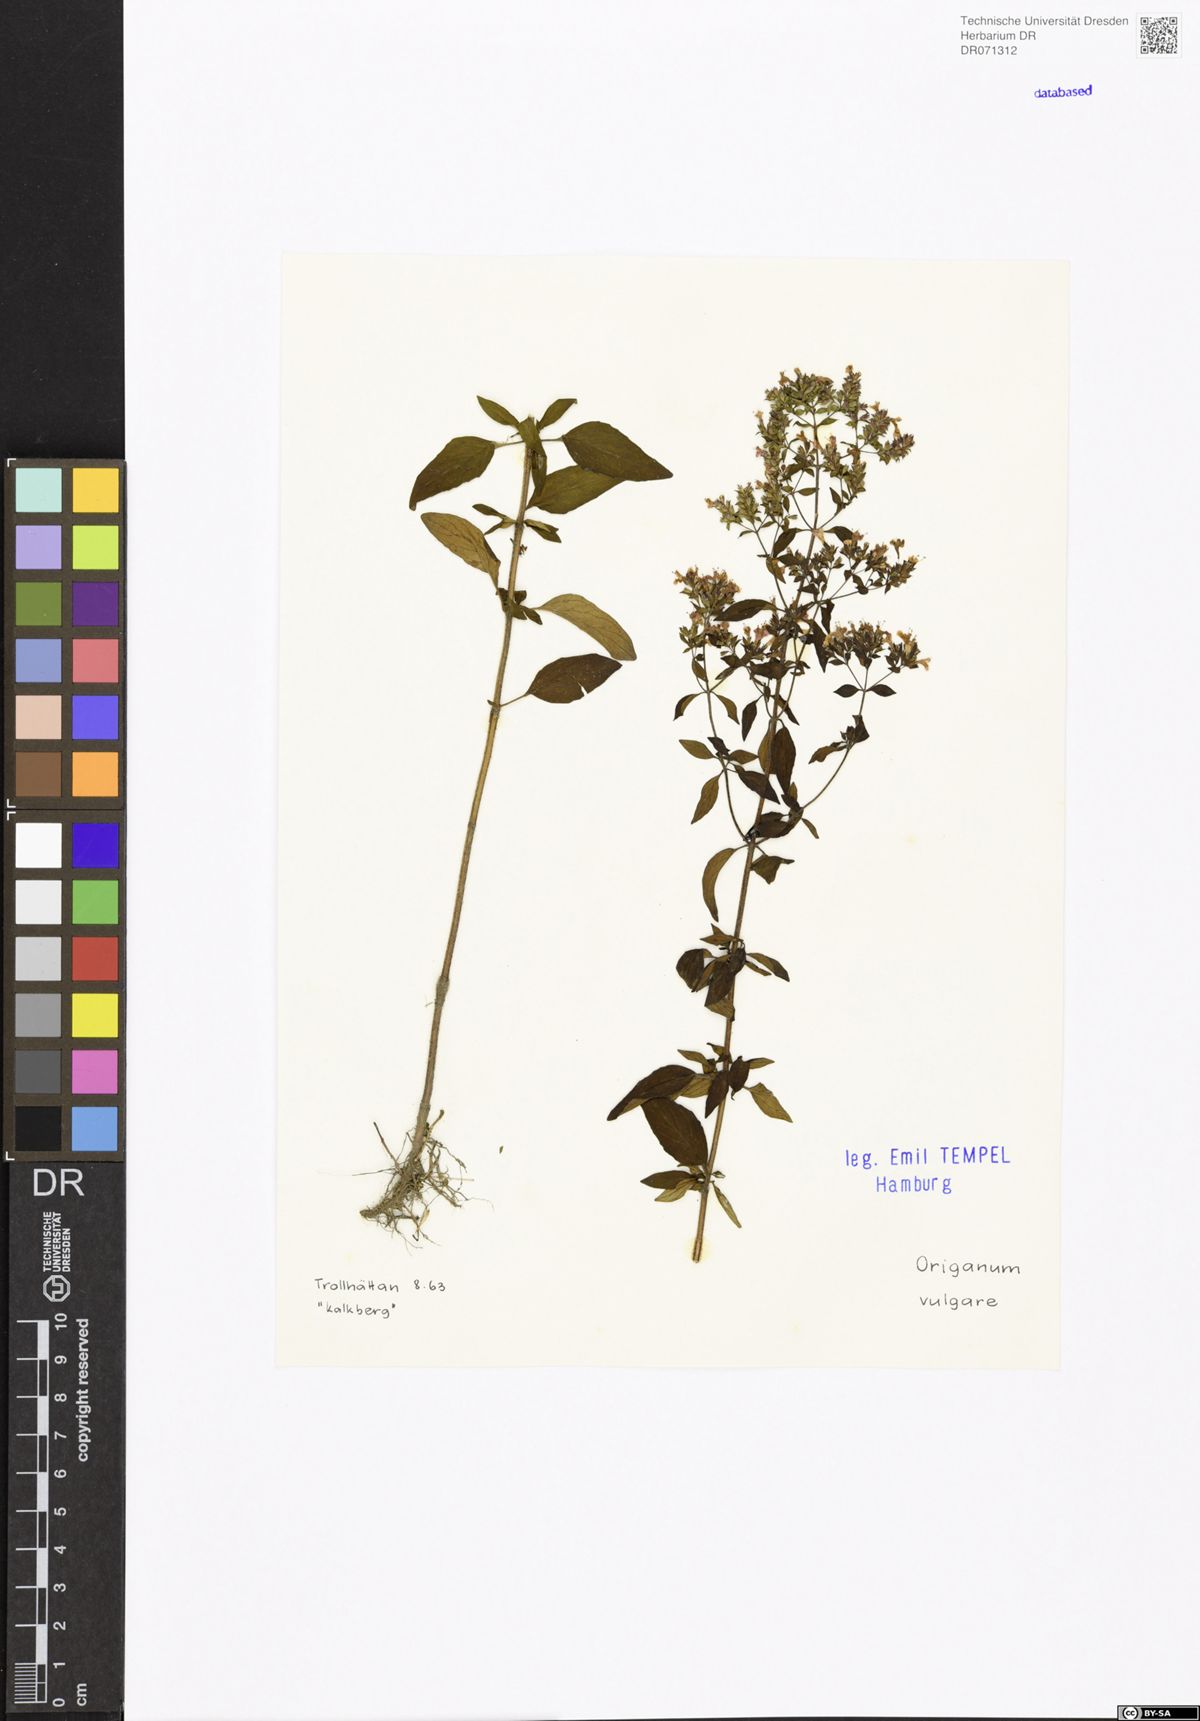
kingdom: Plantae
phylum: Tracheophyta
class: Magnoliopsida
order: Lamiales
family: Lamiaceae
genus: Origanum
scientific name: Origanum vulgare
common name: Wild marjoram
